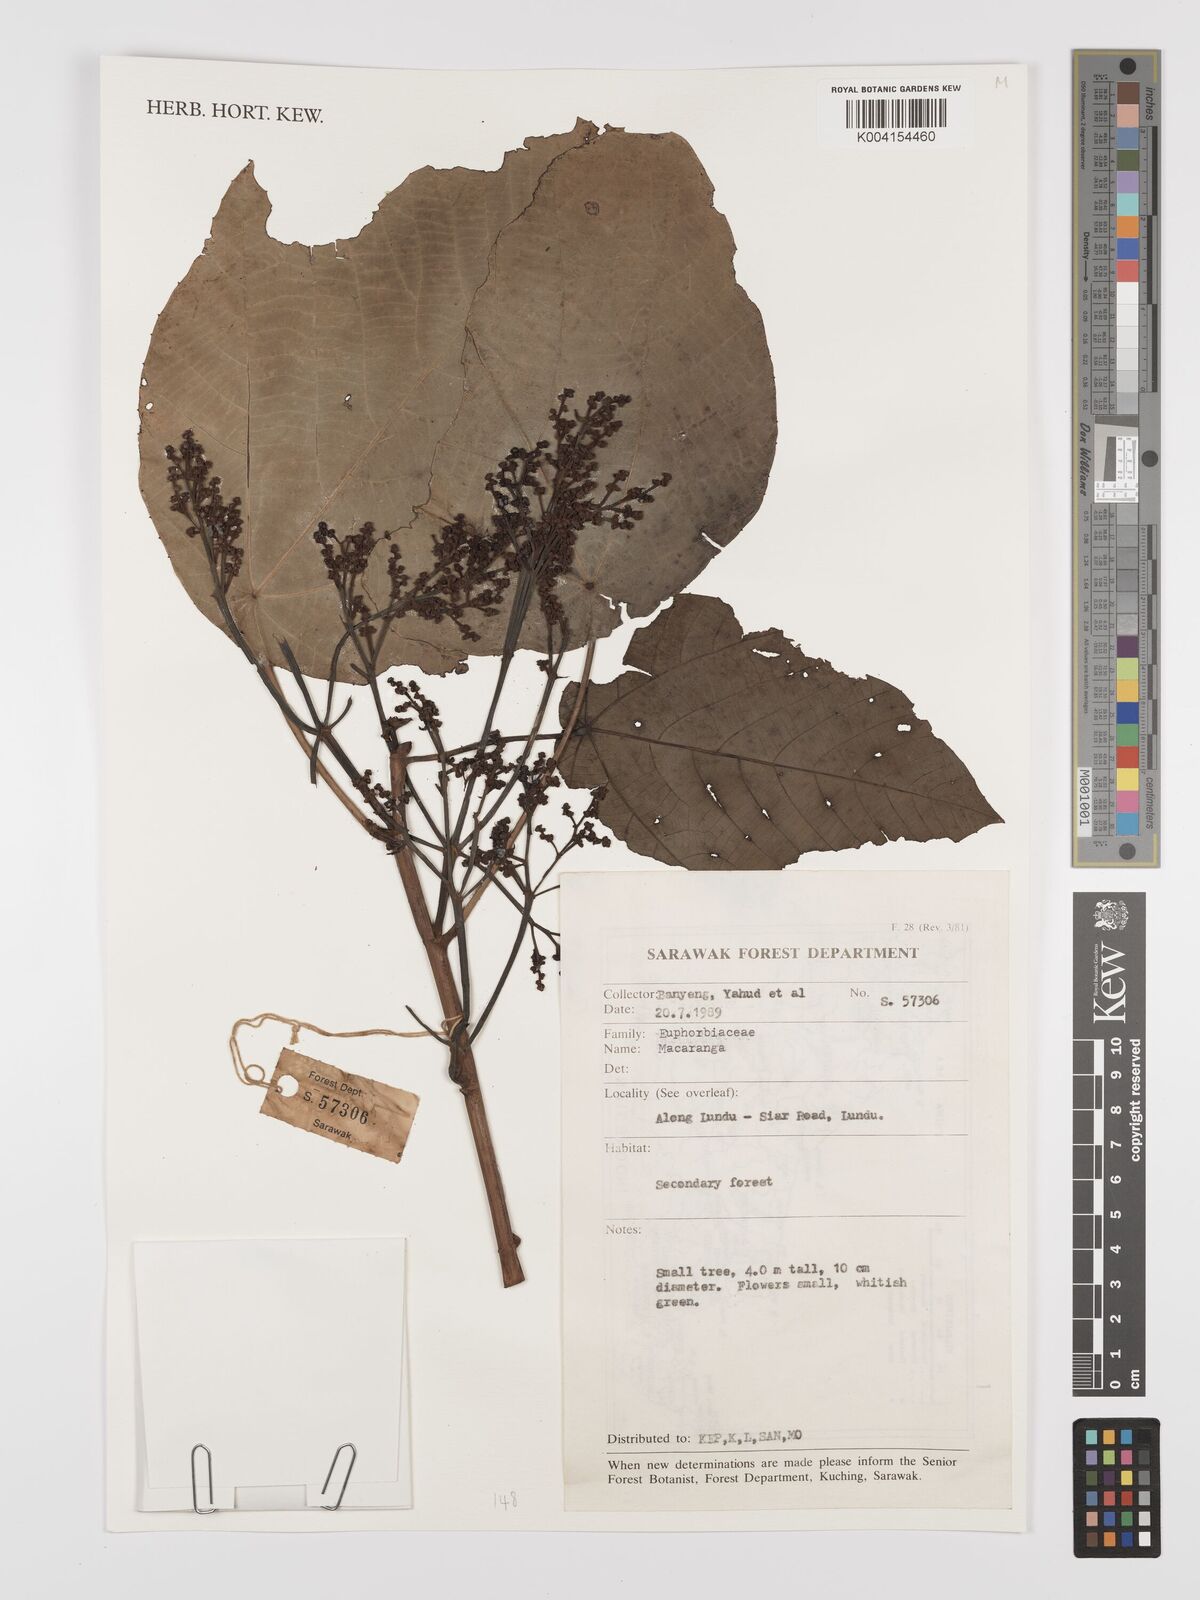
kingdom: Plantae
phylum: Tracheophyta
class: Magnoliopsida
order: Malpighiales
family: Euphorbiaceae
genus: Macaranga
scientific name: Macaranga
